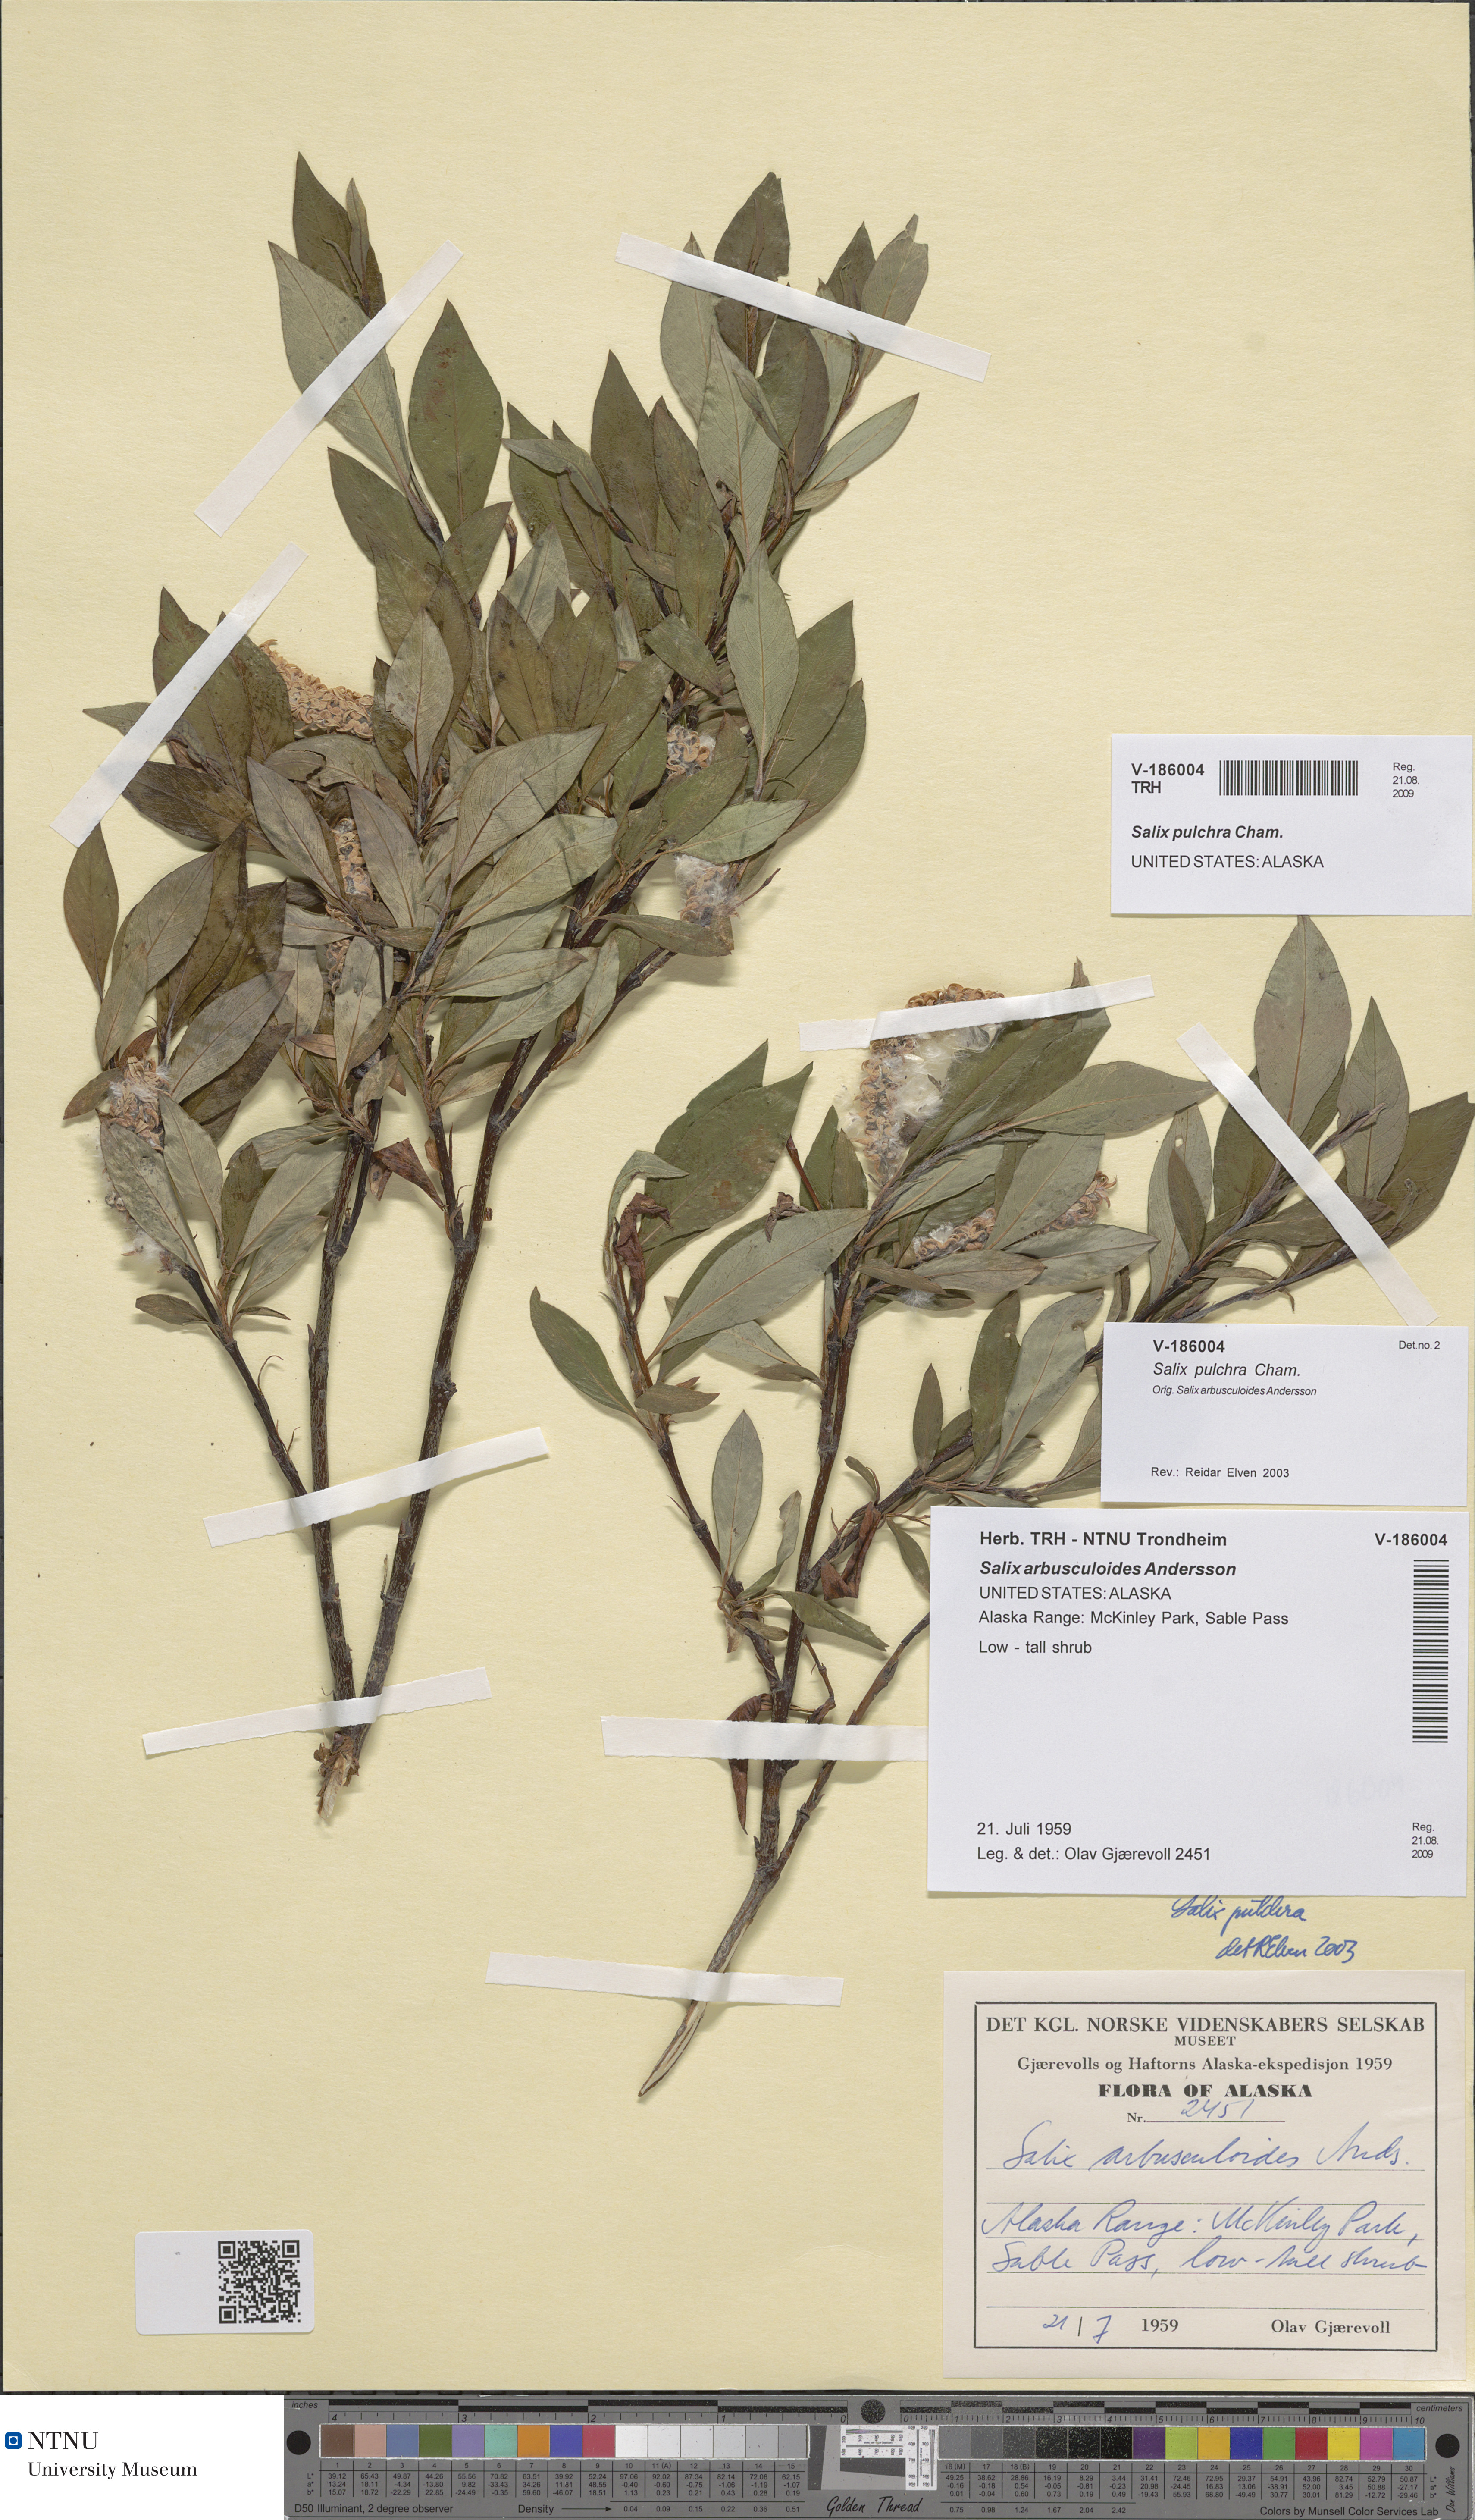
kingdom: Plantae
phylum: Tracheophyta
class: Magnoliopsida
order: Malpighiales
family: Salicaceae
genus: Salix
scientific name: Salix pulchra
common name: Diamond-leaved willow
